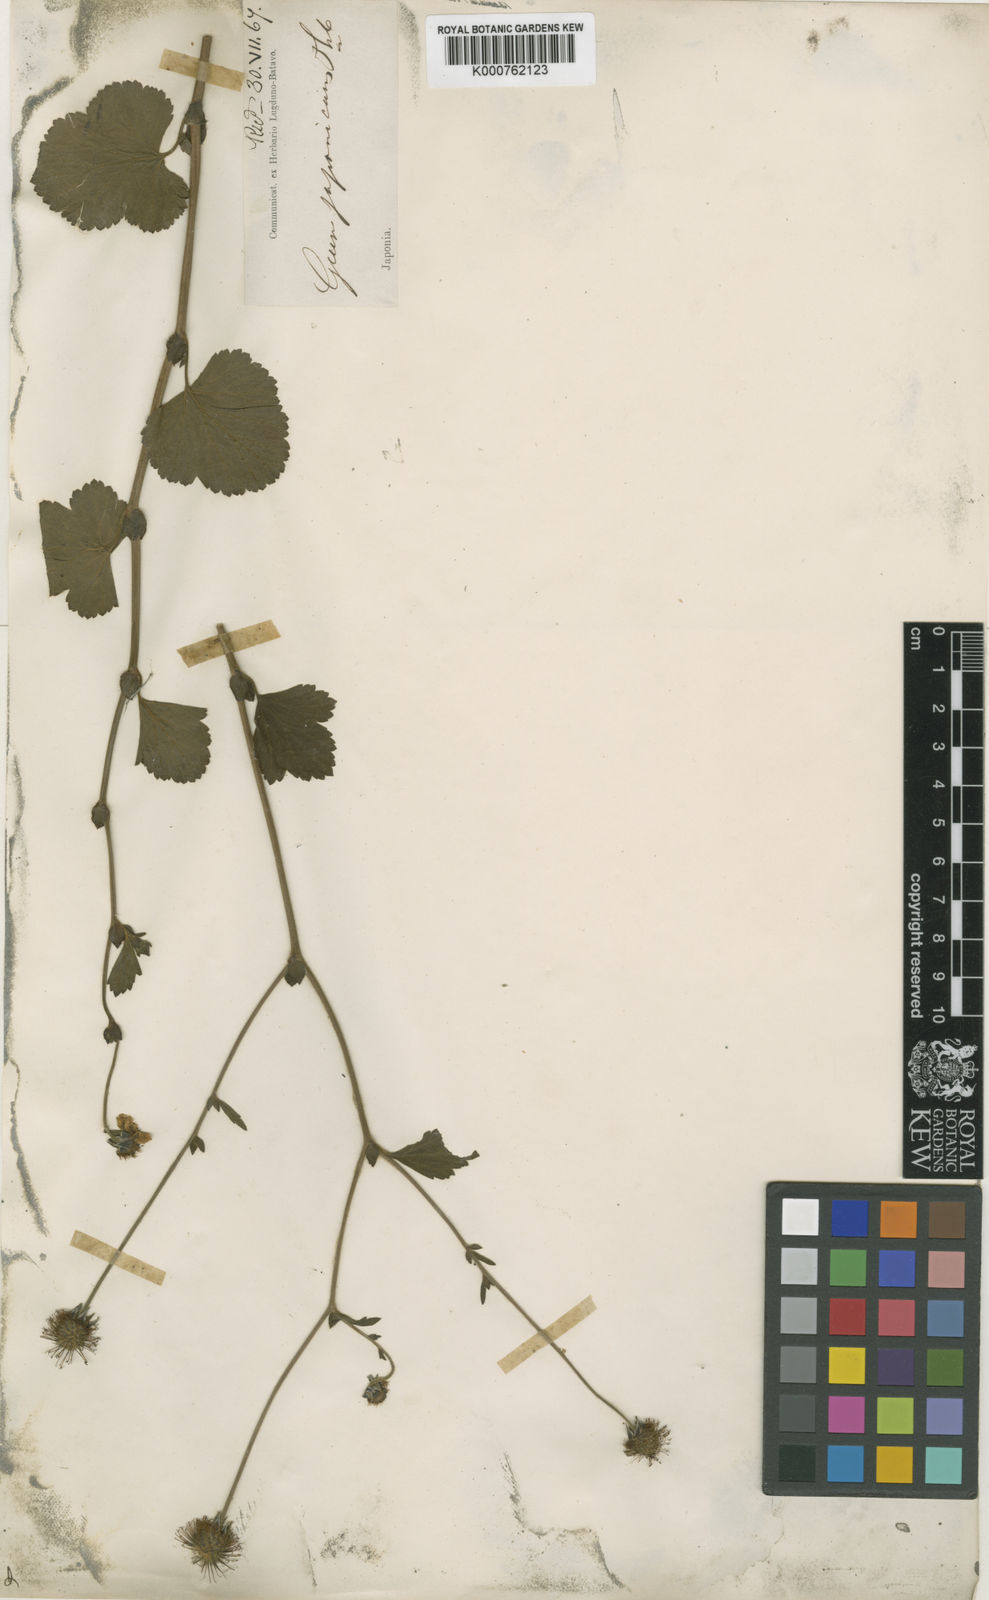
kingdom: Plantae
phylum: Tracheophyta
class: Magnoliopsida
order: Rosales
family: Rosaceae
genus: Geum
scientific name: Geum japonicum
